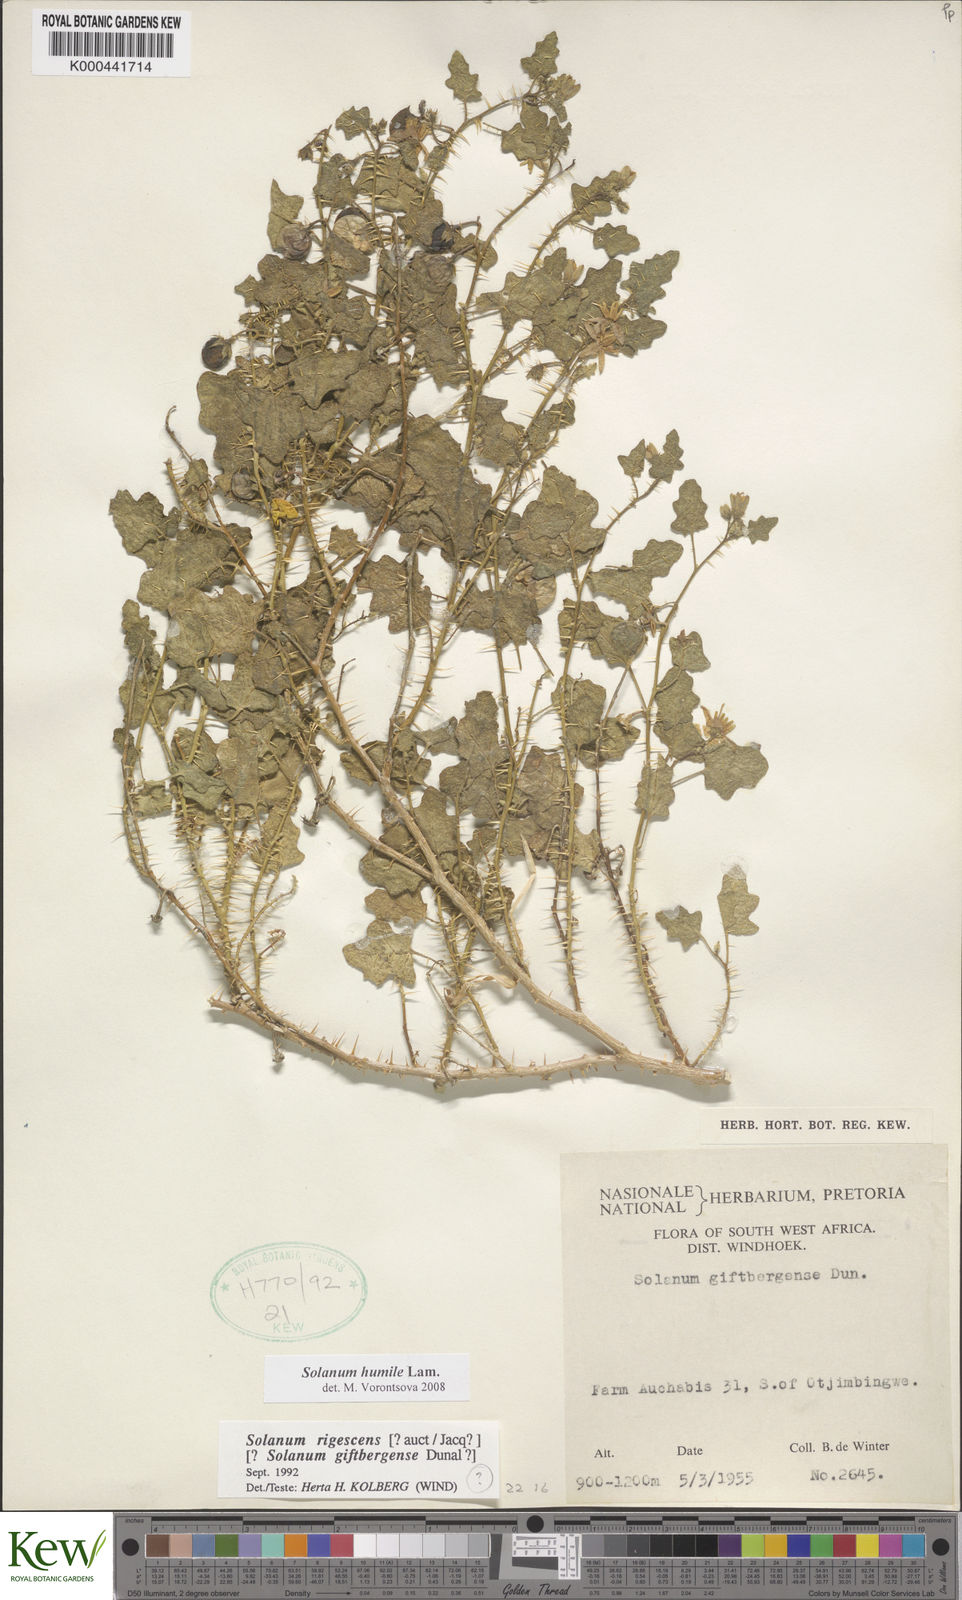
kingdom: Plantae
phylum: Tracheophyta
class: Magnoliopsida
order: Solanales
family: Solanaceae
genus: Solanum
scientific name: Solanum humile
